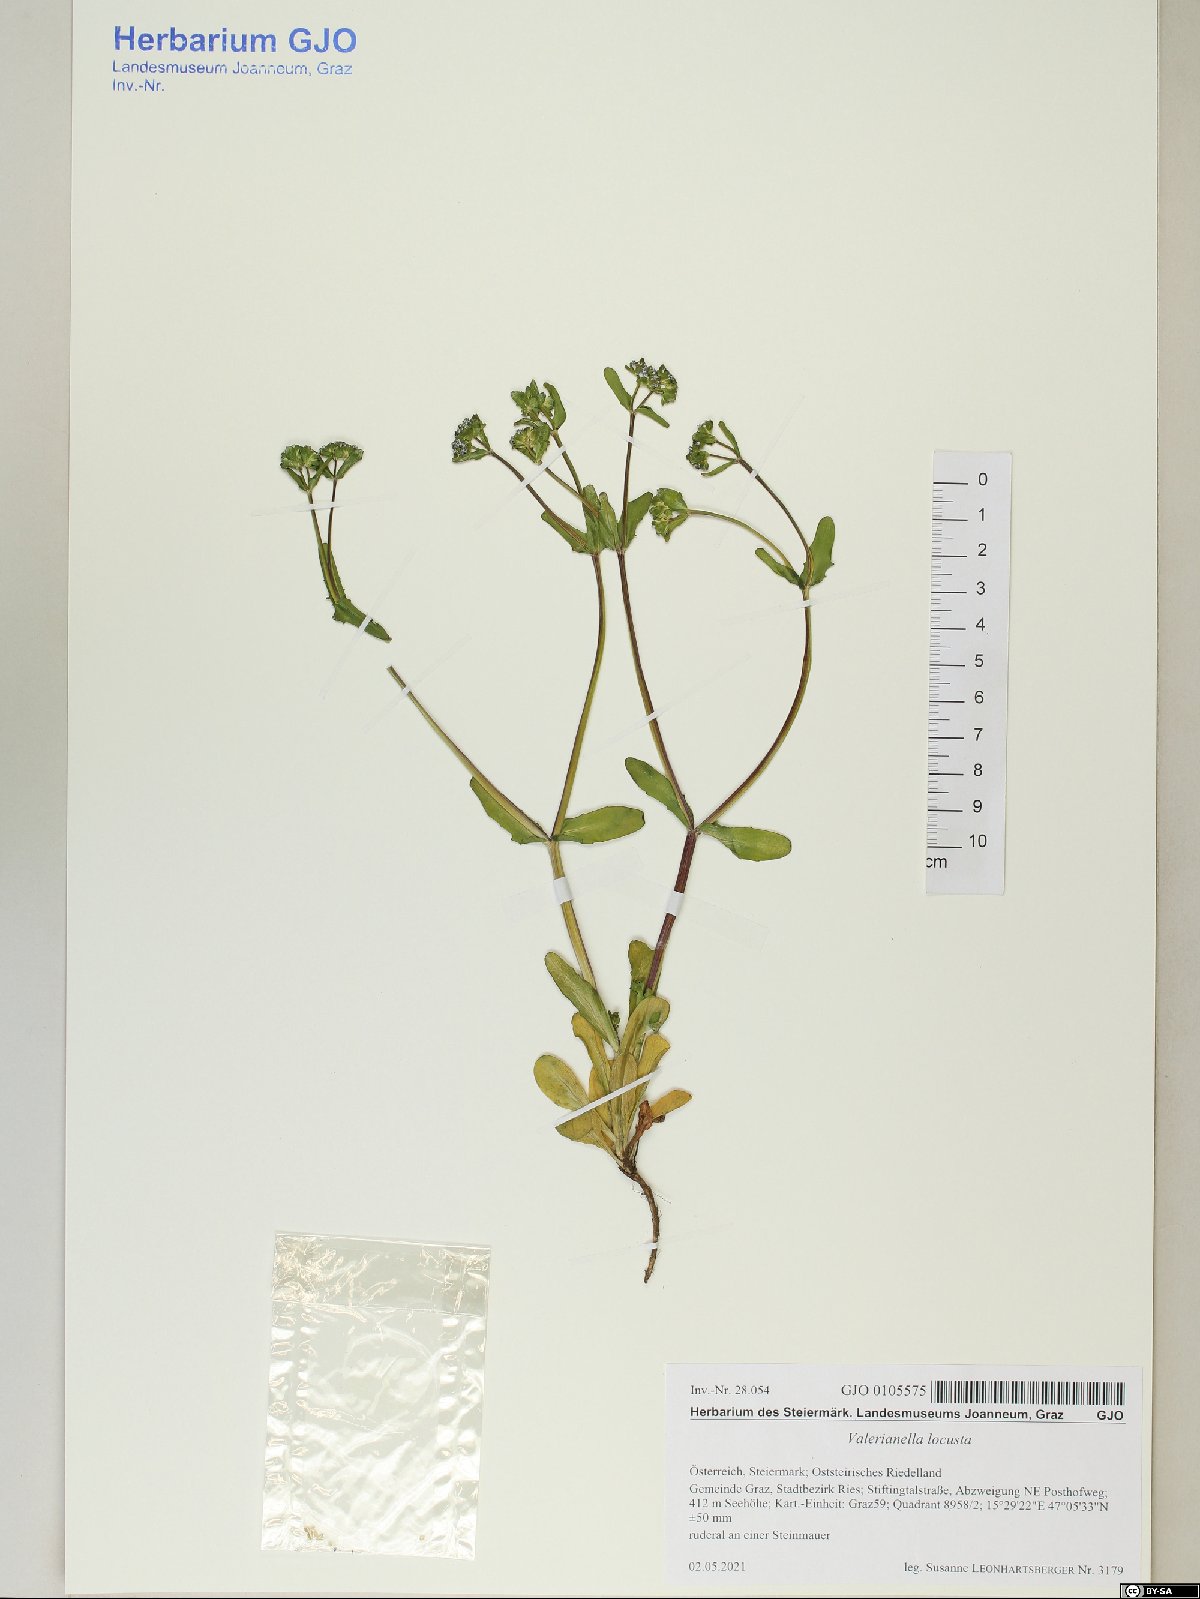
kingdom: Plantae
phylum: Tracheophyta
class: Magnoliopsida
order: Dipsacales
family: Caprifoliaceae
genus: Valerianella
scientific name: Valerianella locusta
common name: Common cornsalad
